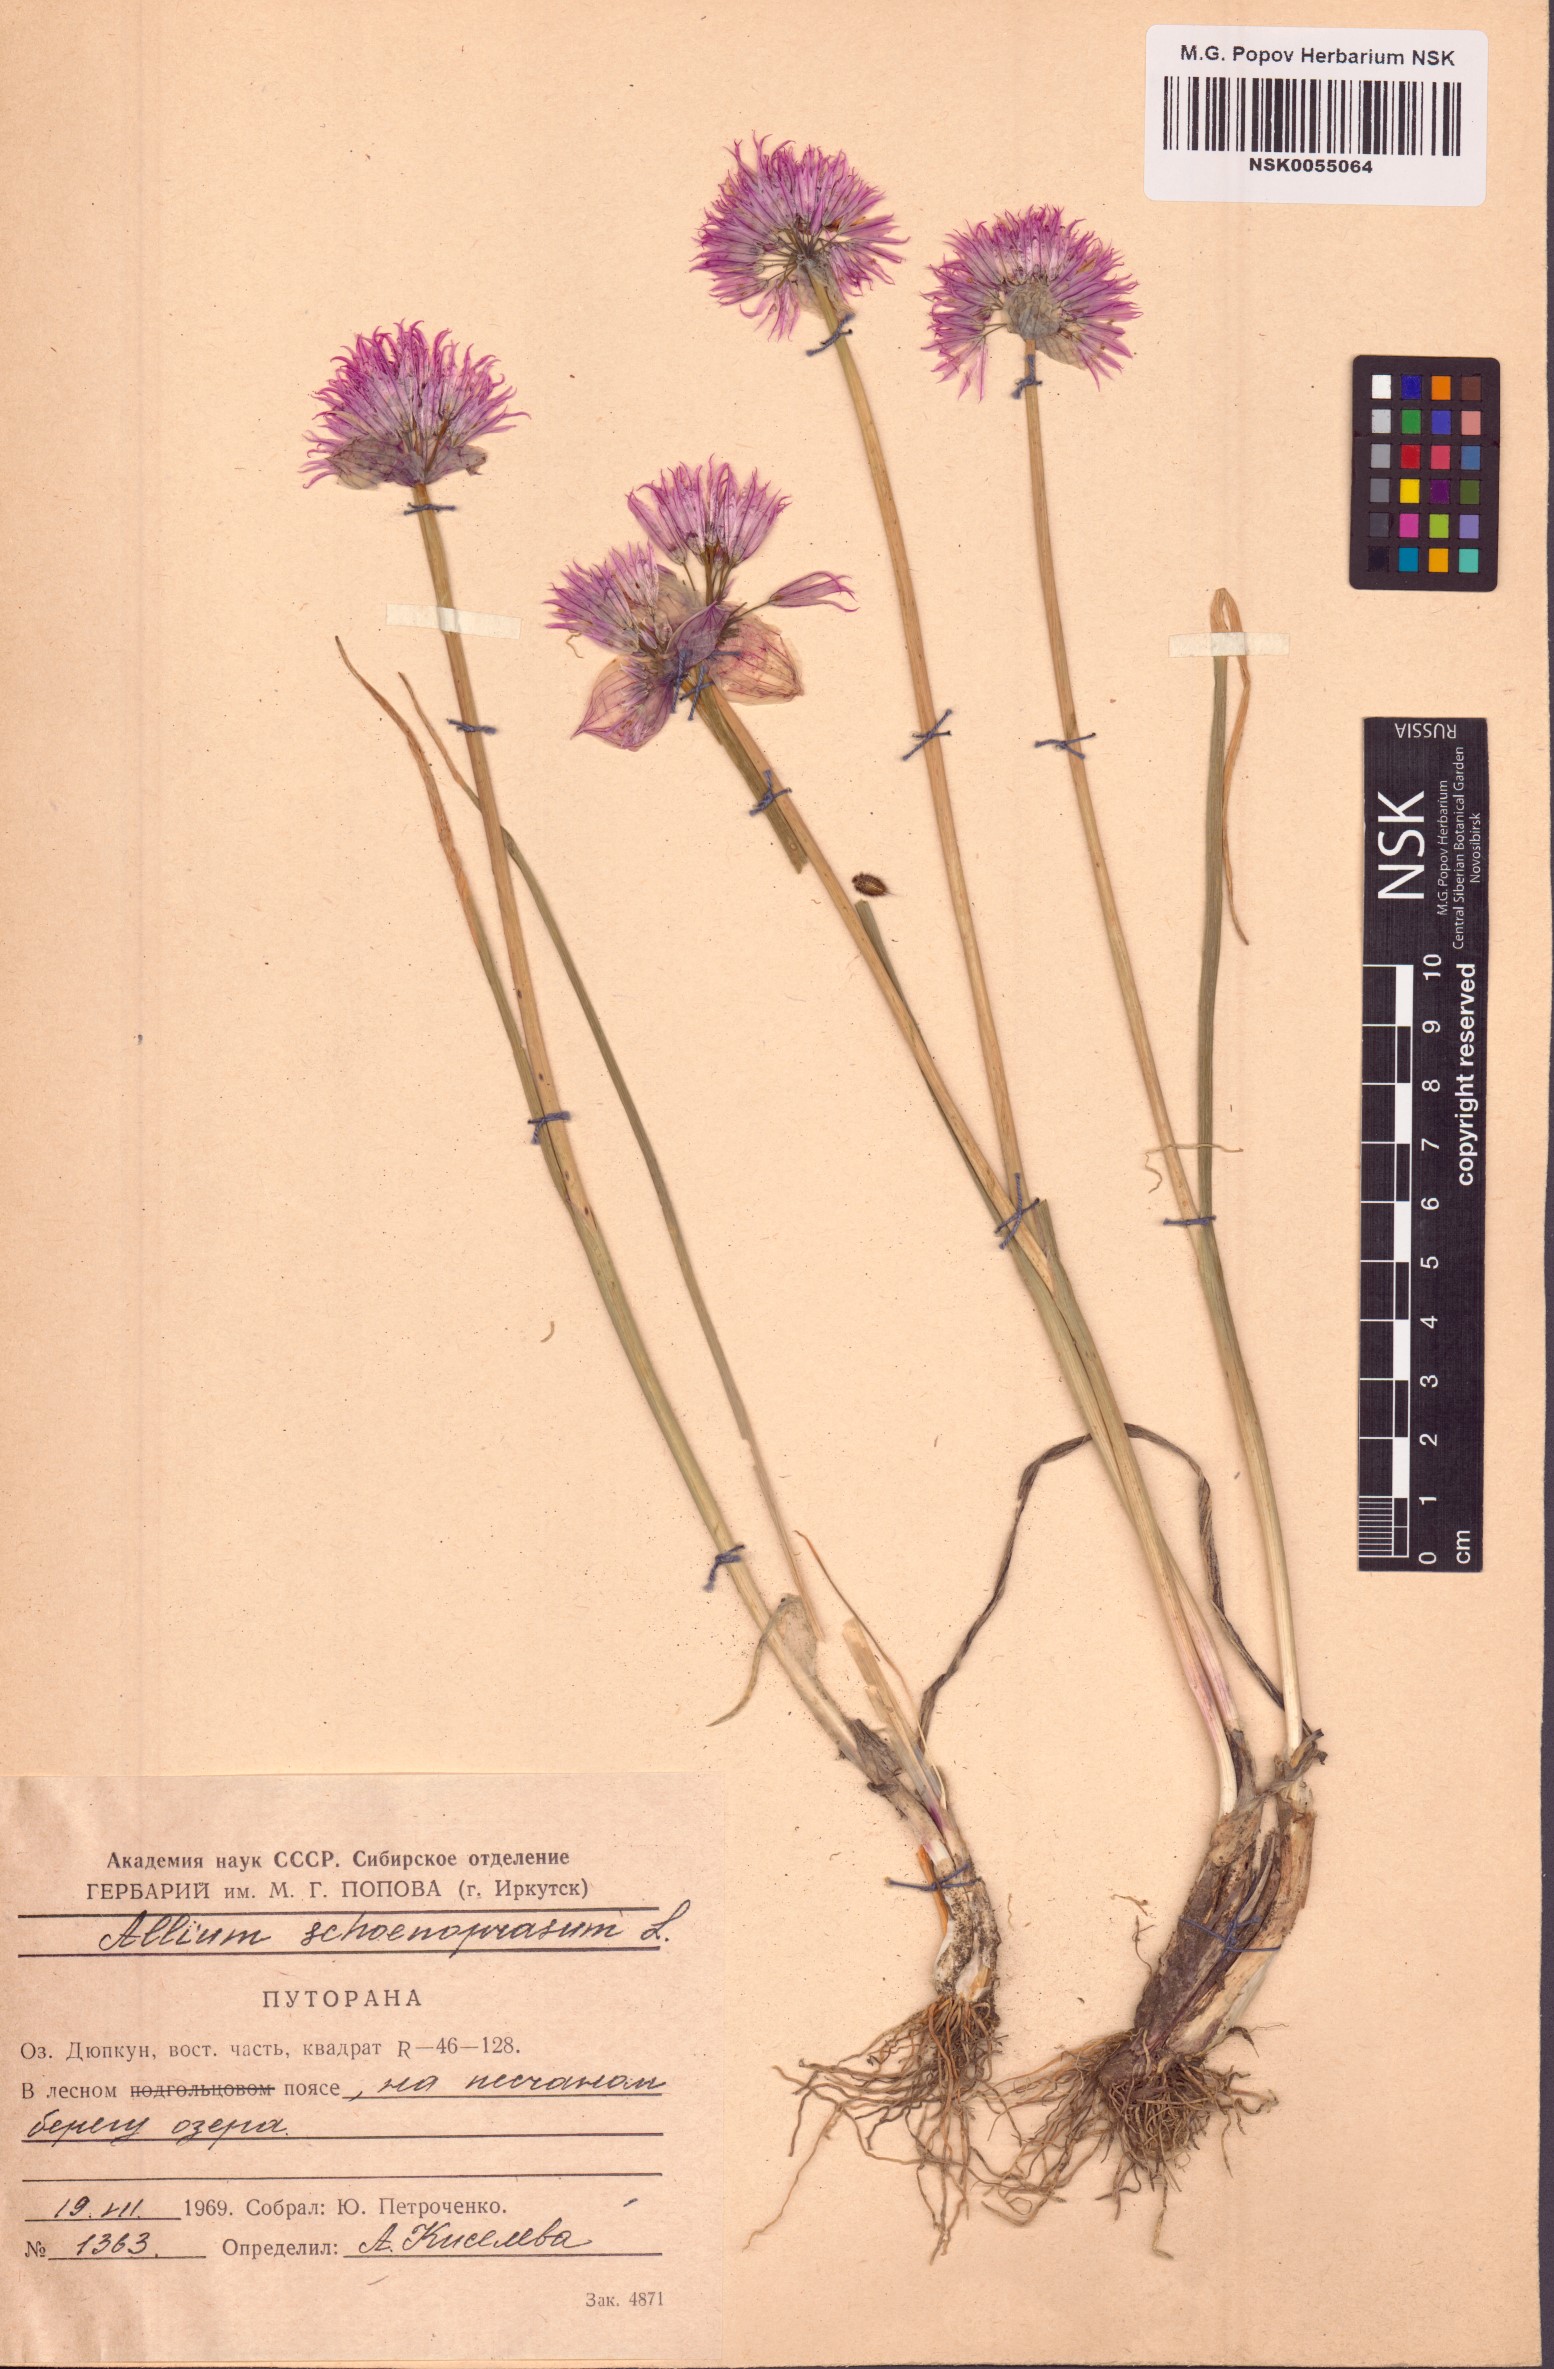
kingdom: Plantae
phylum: Tracheophyta
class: Liliopsida
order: Asparagales
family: Amaryllidaceae
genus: Allium
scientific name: Allium schoenoprasum
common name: Chives
